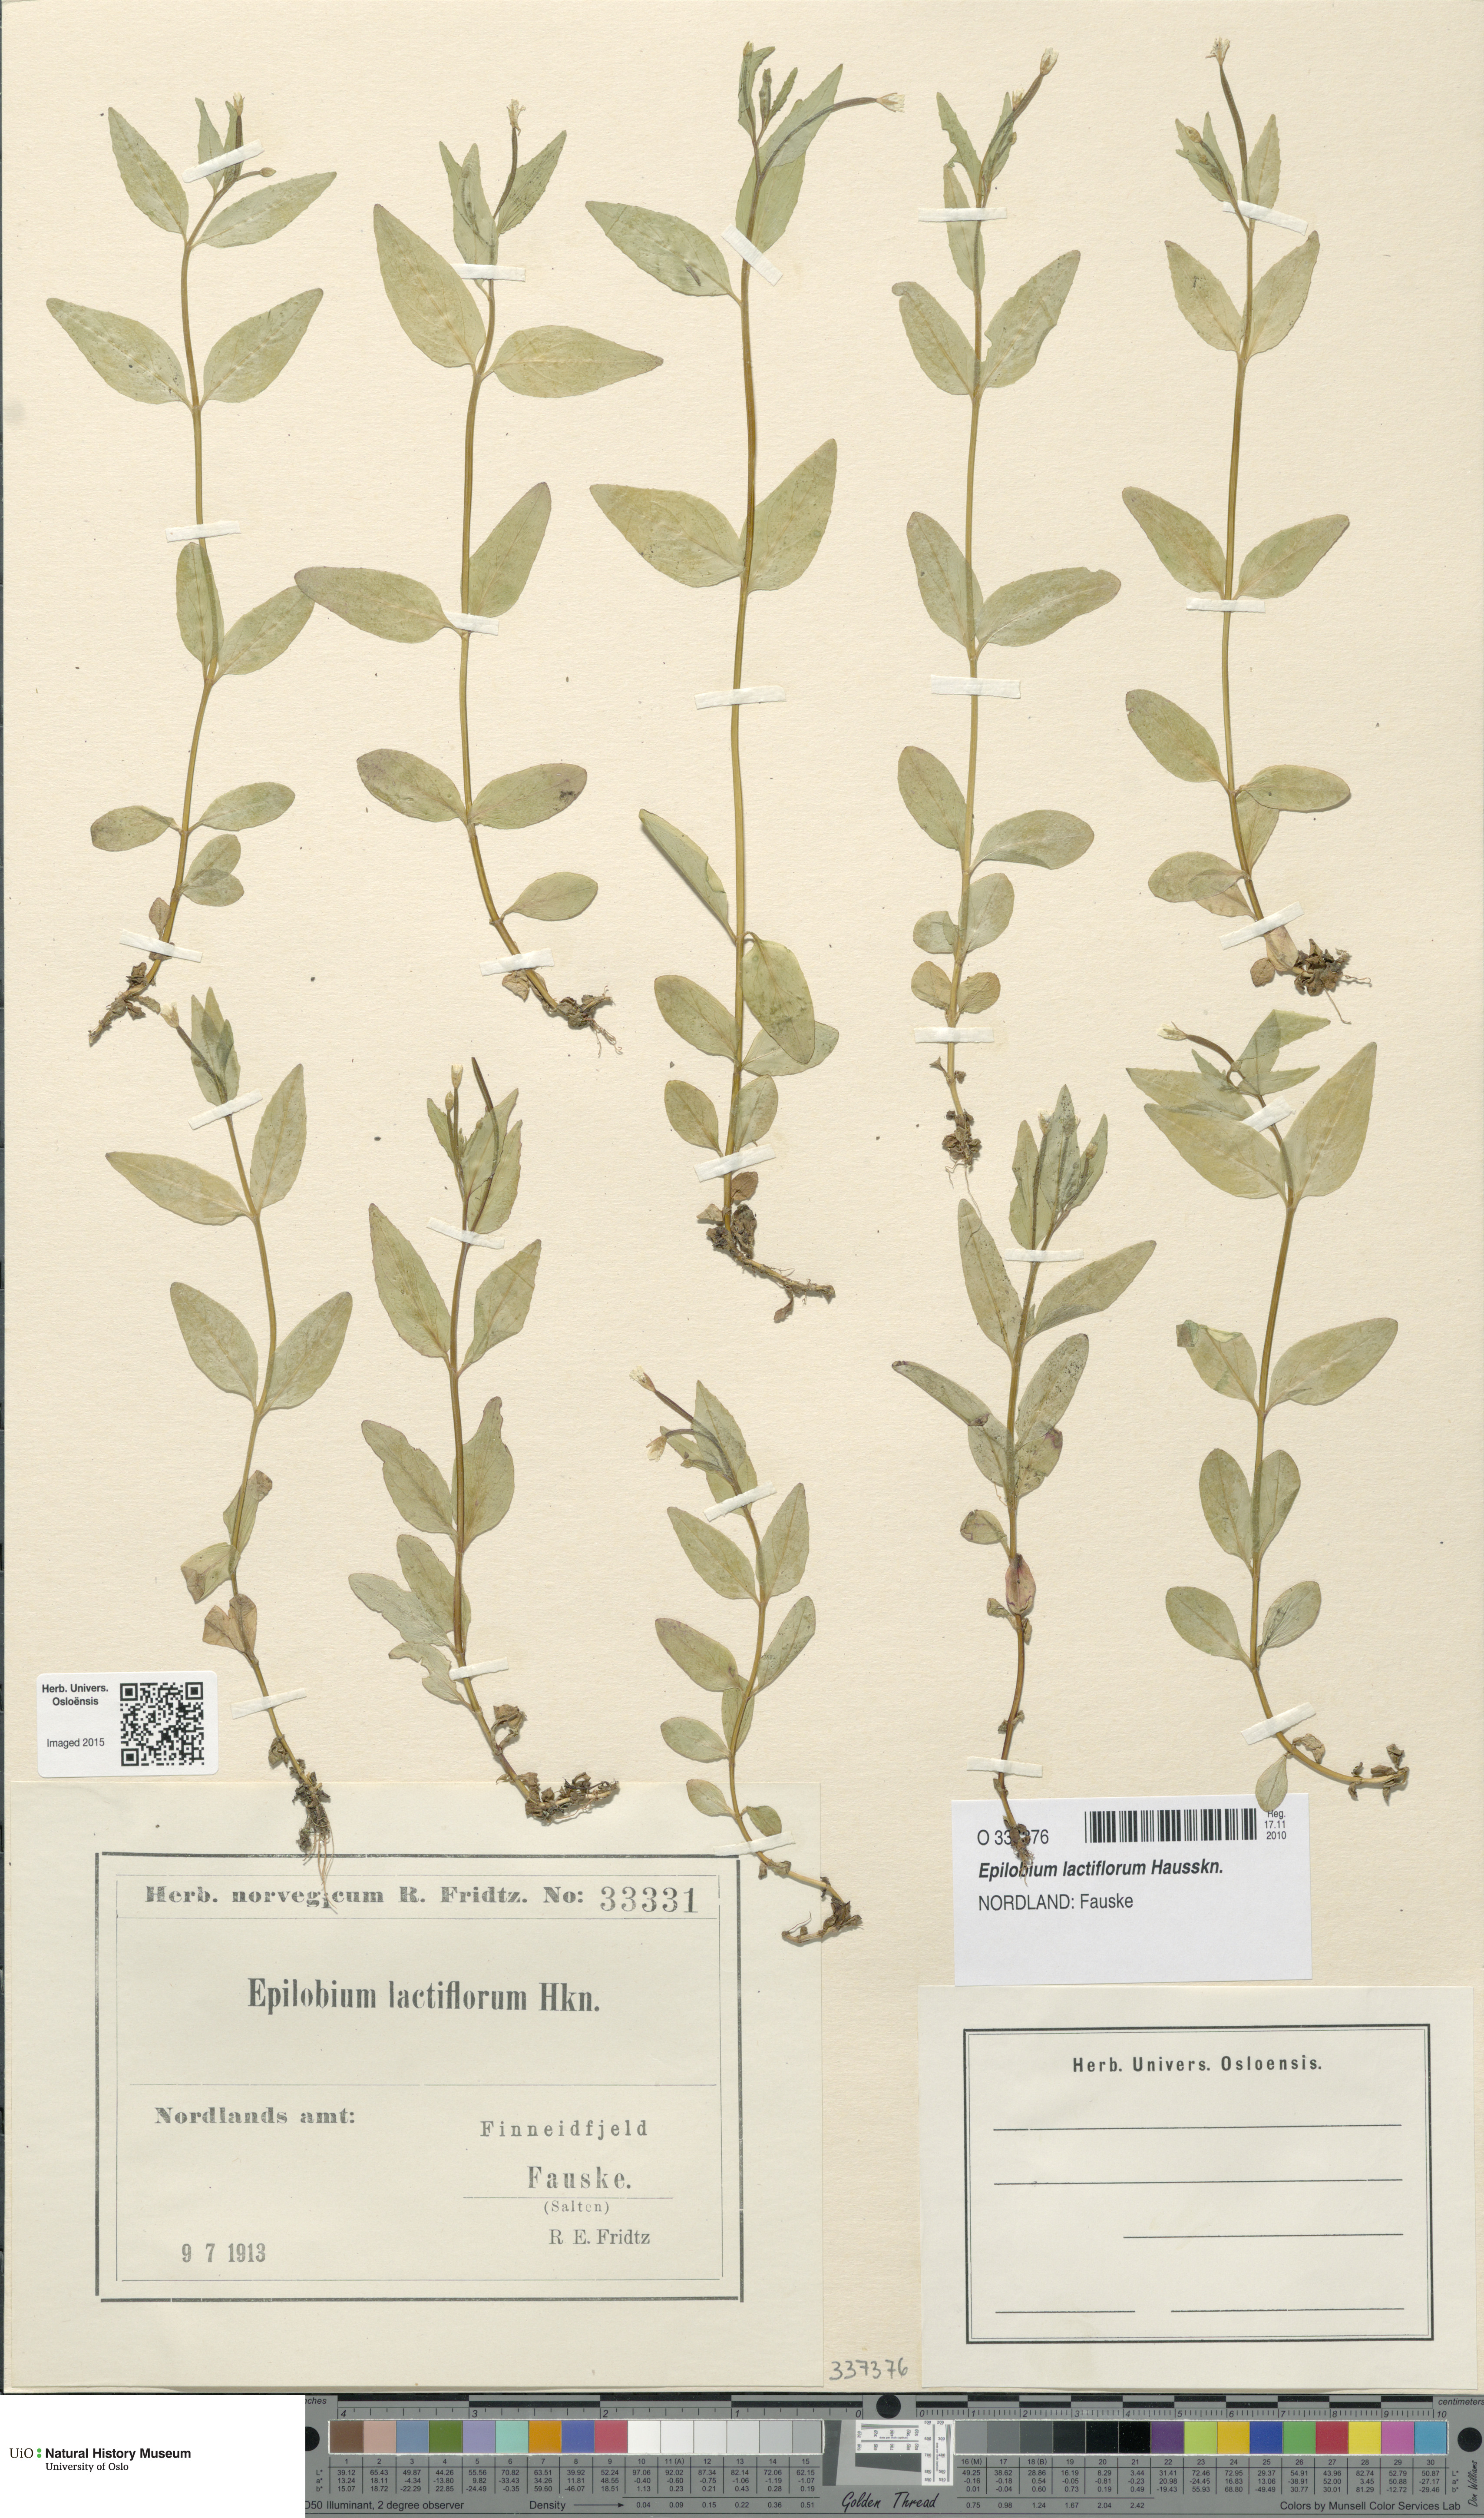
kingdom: Plantae
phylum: Tracheophyta
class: Magnoliopsida
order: Myrtales
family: Onagraceae
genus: Epilobium
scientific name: Epilobium lactiflorum
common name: Milkflower willowherb
